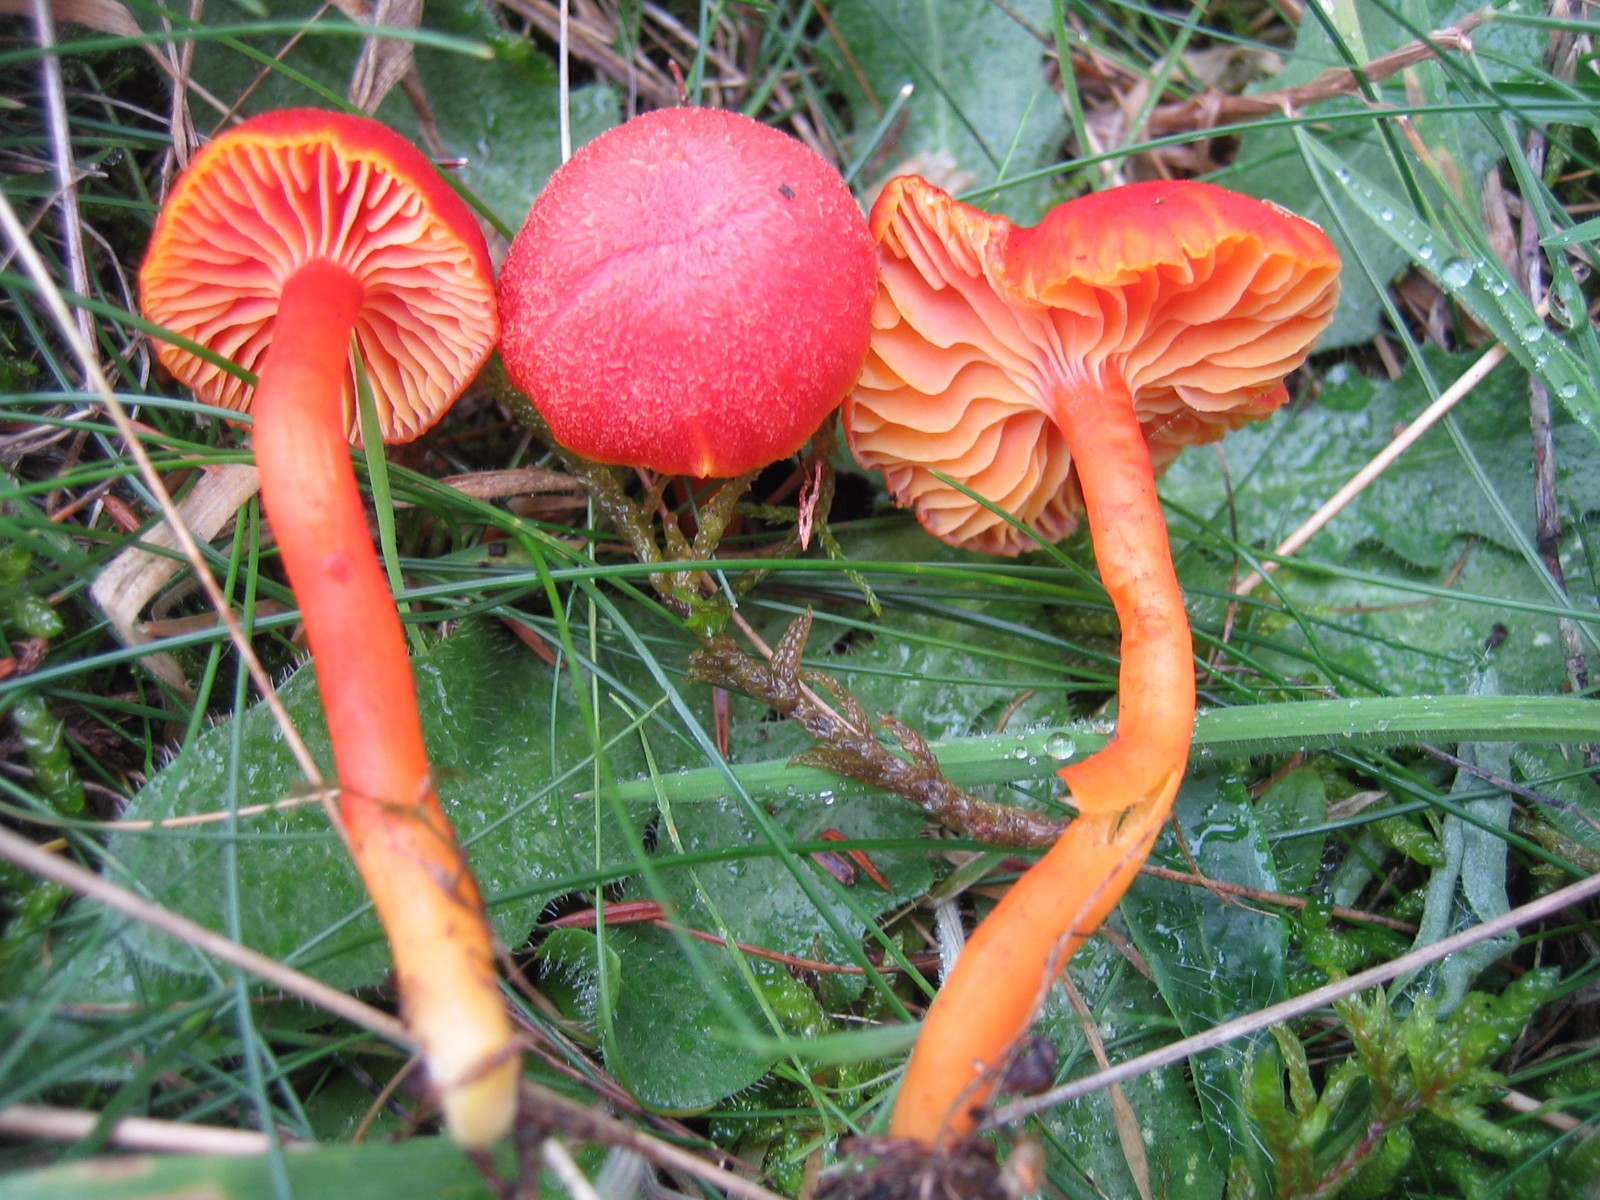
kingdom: Fungi
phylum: Basidiomycota
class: Agaricomycetes
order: Agaricales
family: Hygrophoraceae
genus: Hygrocybe
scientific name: Hygrocybe miniata
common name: mønje-vokshat
